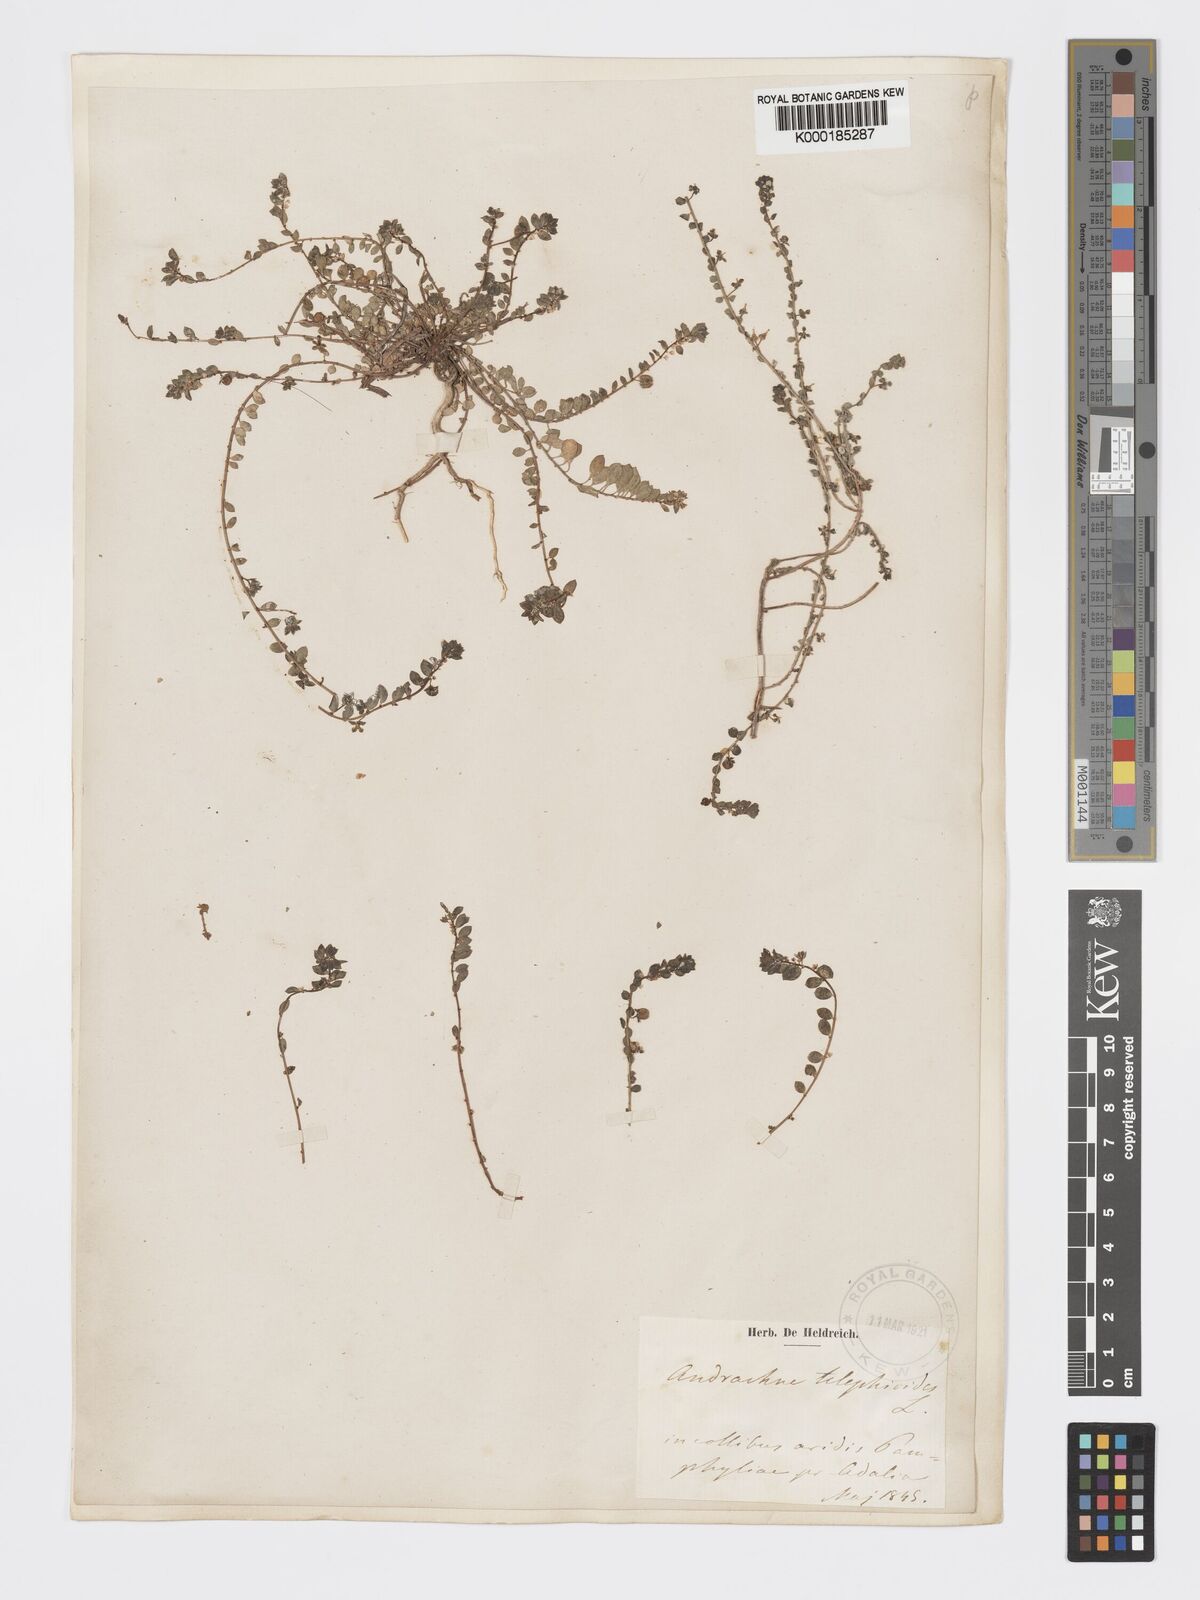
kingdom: Plantae
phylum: Tracheophyta
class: Magnoliopsida
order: Malpighiales
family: Phyllanthaceae
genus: Andrachne
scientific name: Andrachne telephioides
